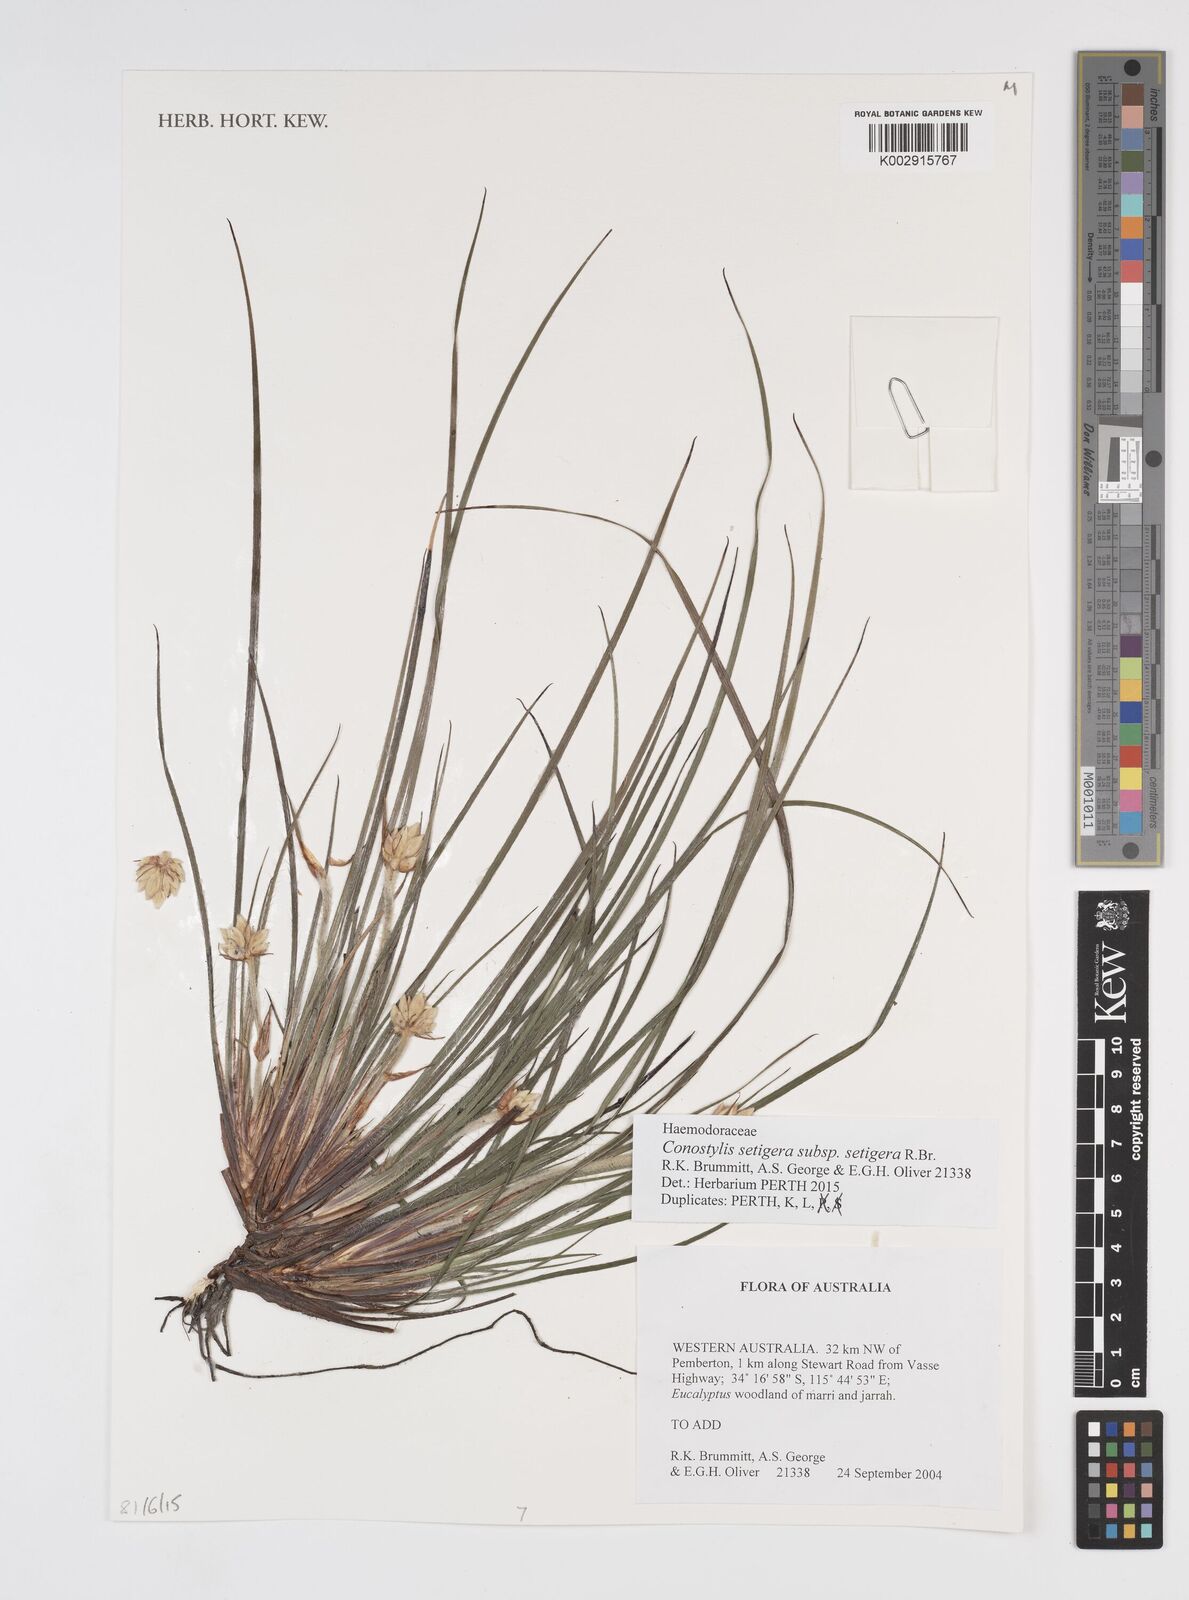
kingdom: Plantae
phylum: Tracheophyta
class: Liliopsida
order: Commelinales
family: Haemodoraceae
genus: Conostylis
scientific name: Conostylis setigera
